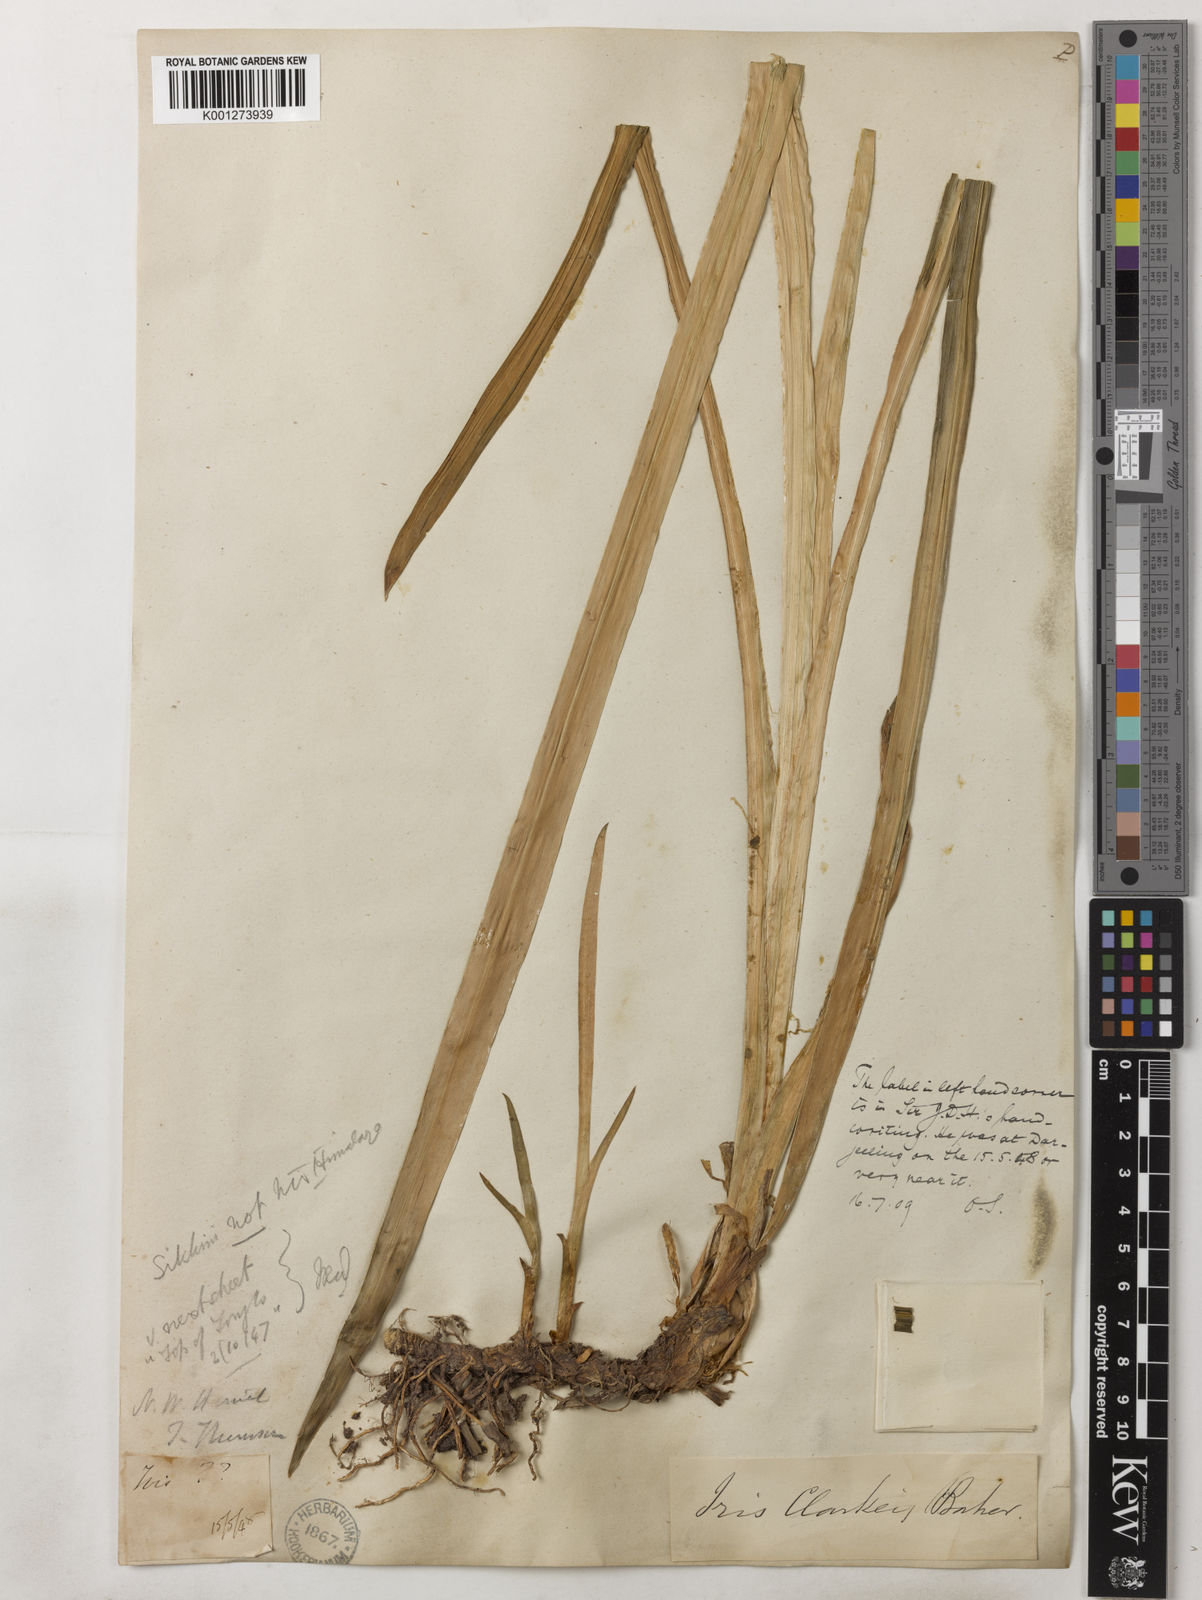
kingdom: Plantae
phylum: Tracheophyta
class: Liliopsida
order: Asparagales
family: Iridaceae
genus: Iris
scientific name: Iris clarkei
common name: Tibet iris
